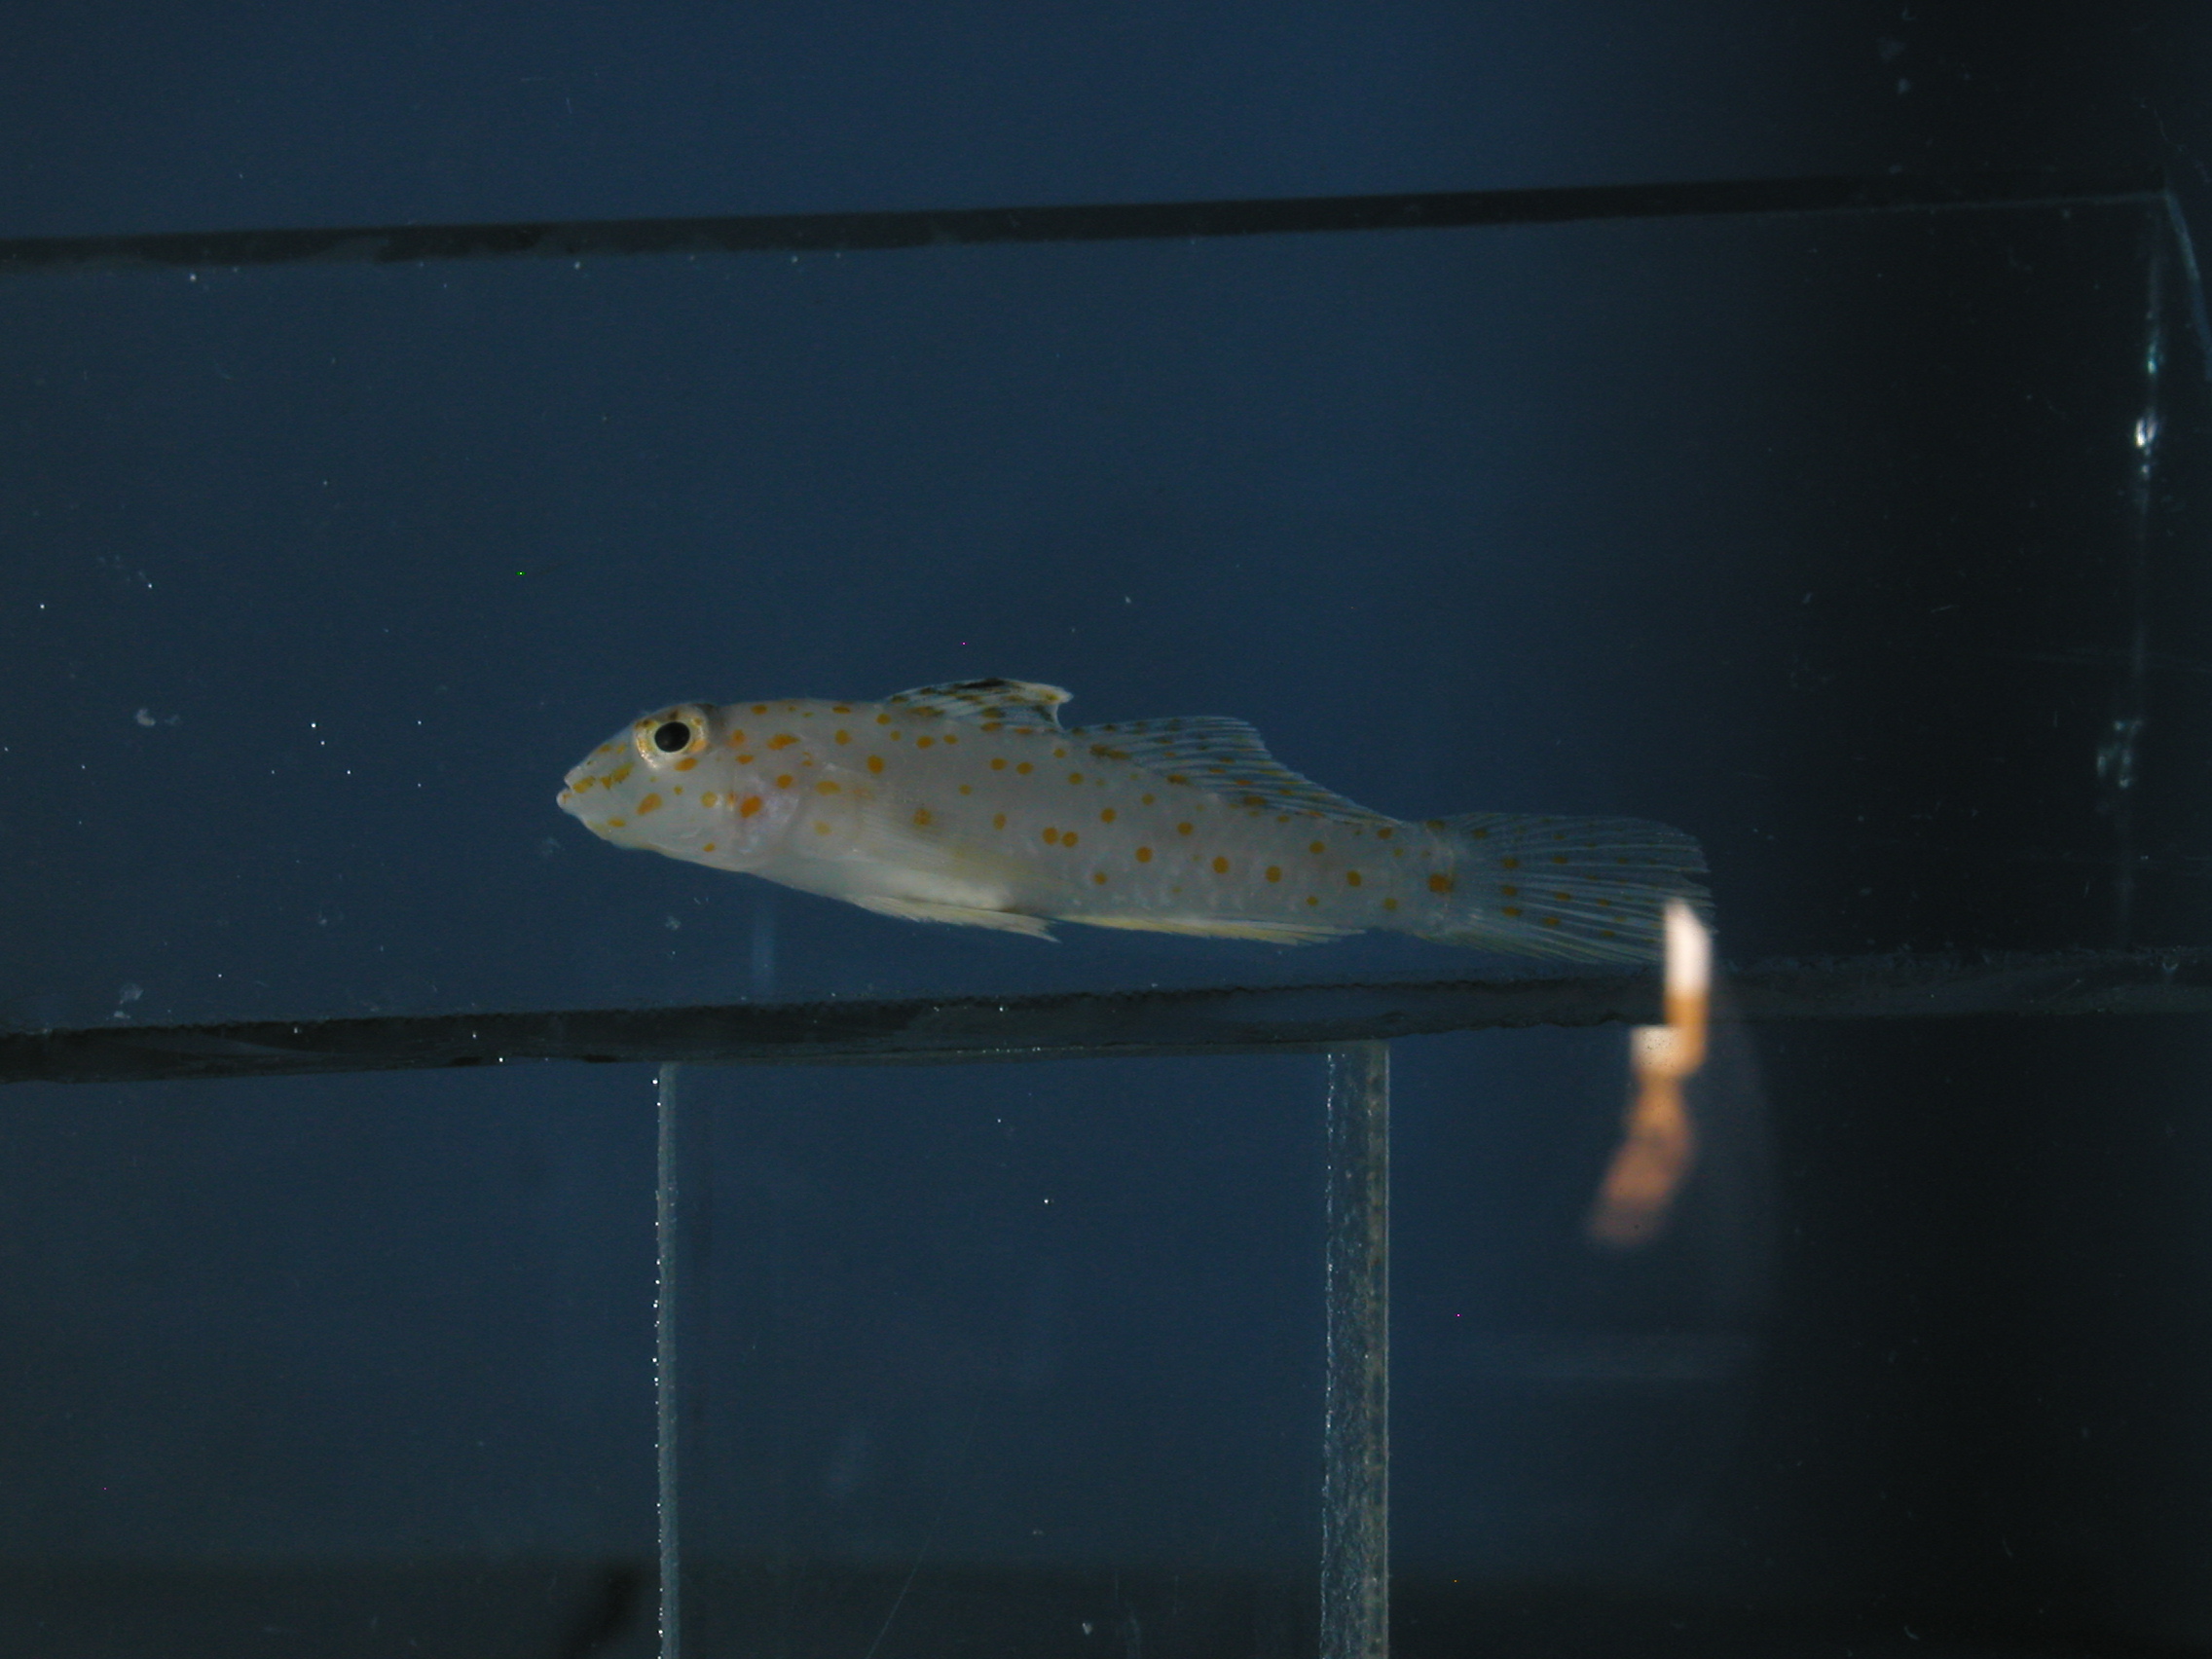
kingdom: Animalia
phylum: Chordata
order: Perciformes
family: Gobiidae
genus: Fusigobius
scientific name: Fusigobius duospilus
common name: Twospot goby
